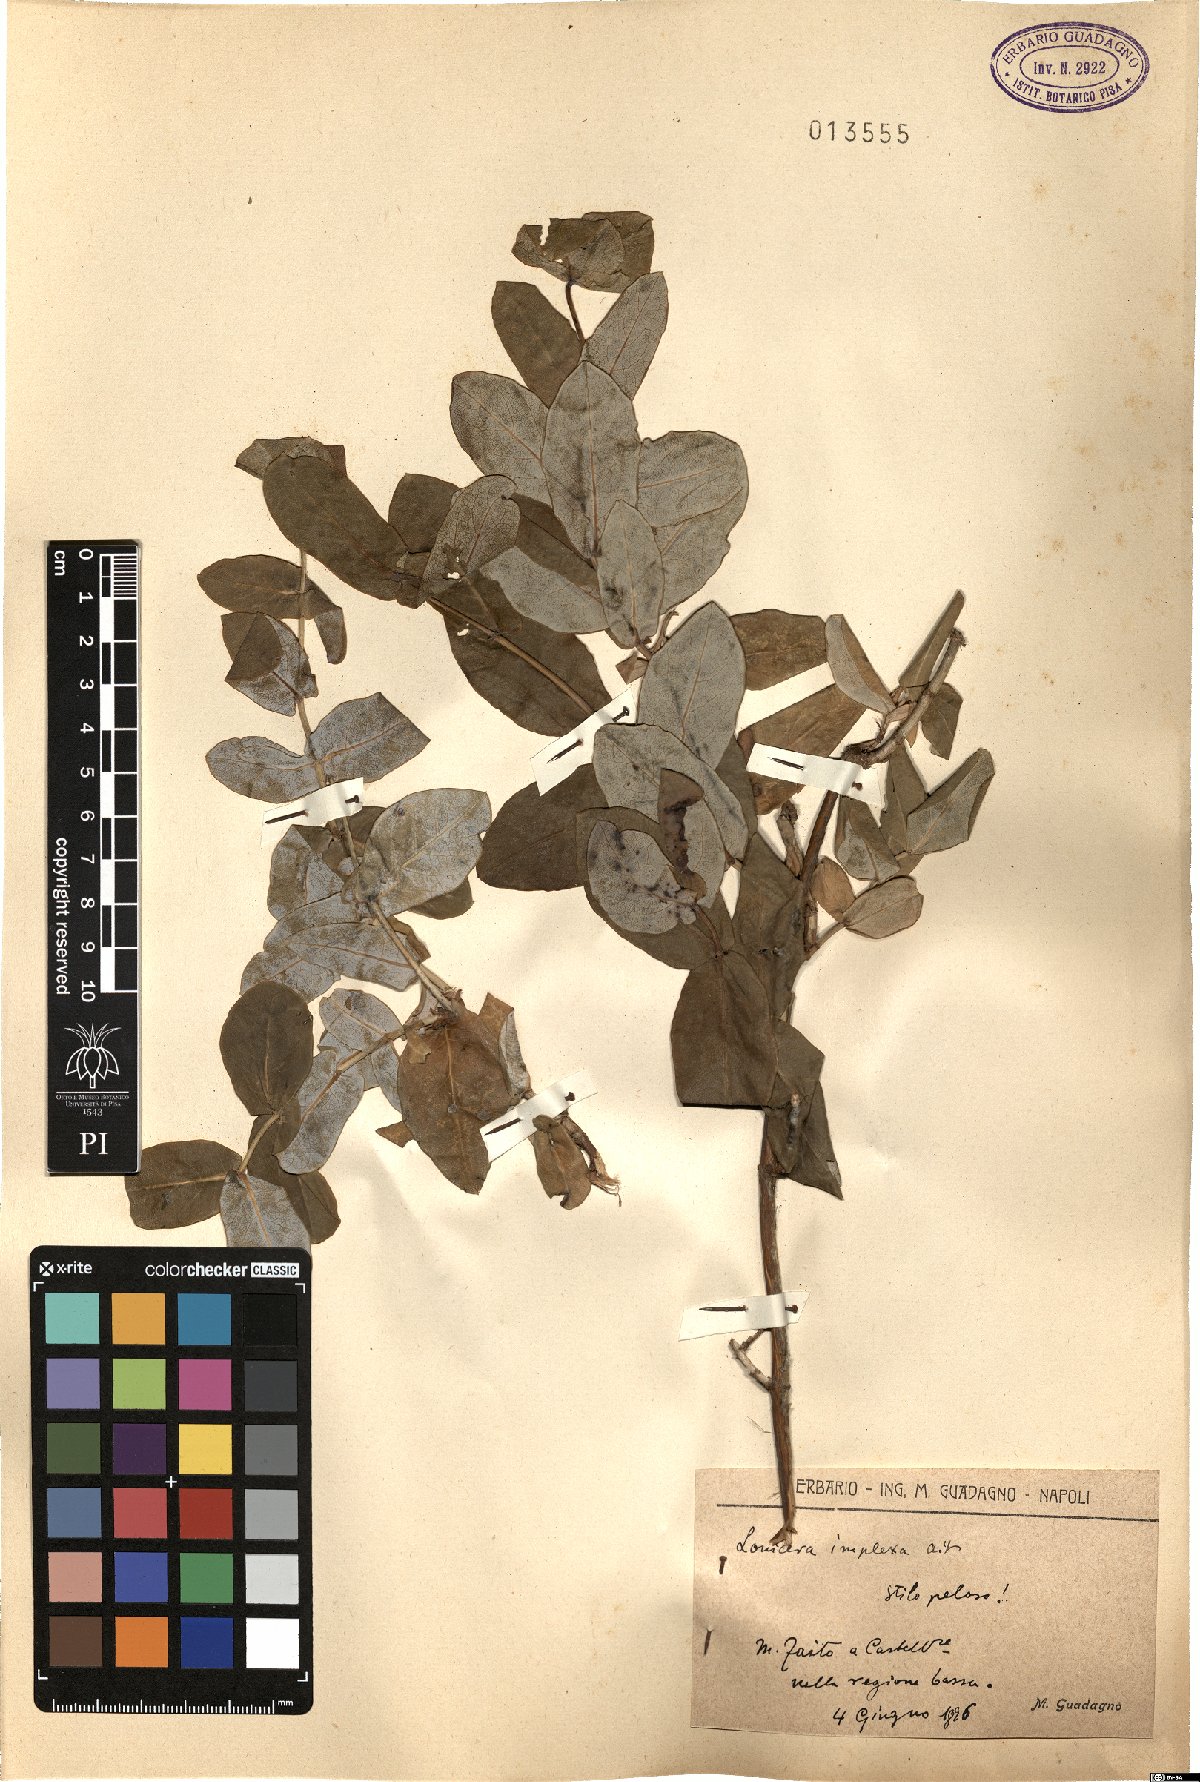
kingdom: Plantae
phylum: Tracheophyta
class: Magnoliopsida
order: Dipsacales
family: Caprifoliaceae
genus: Lonicera
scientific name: Lonicera implexa
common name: Minorca honeysuckle
